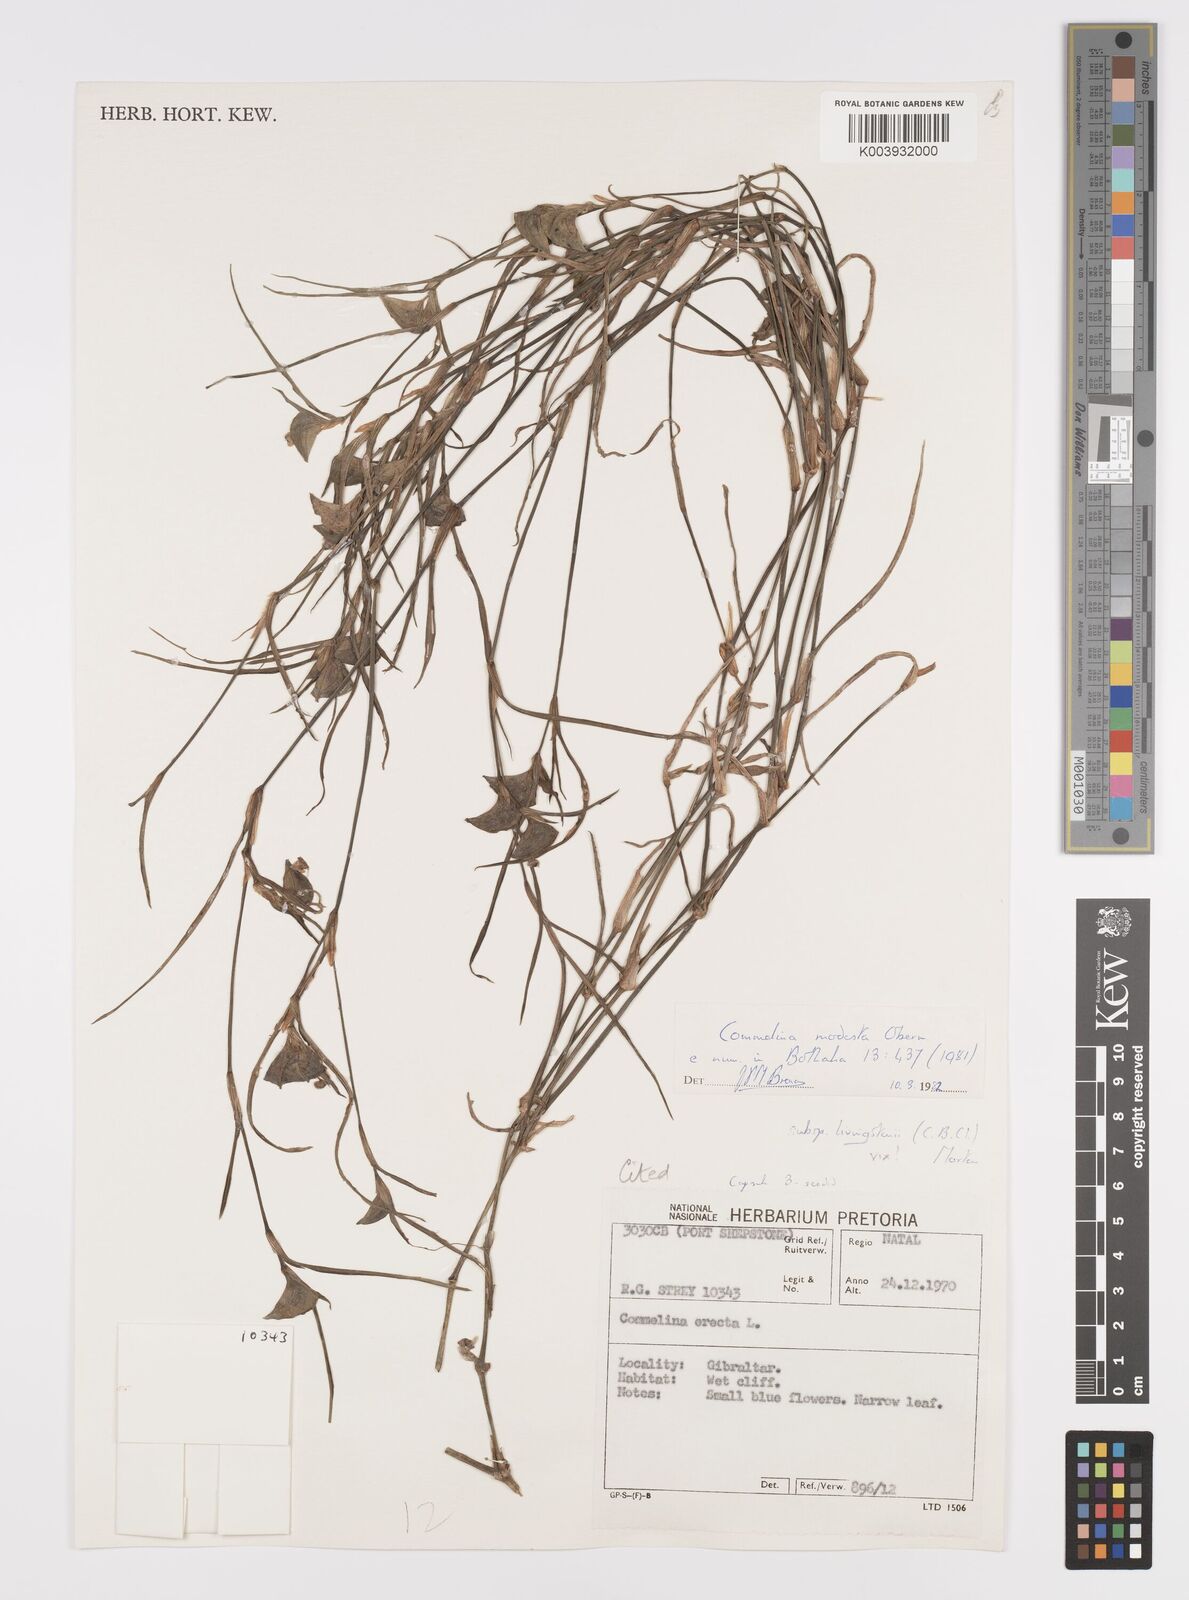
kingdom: Plantae
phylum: Tracheophyta
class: Liliopsida
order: Commelinales
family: Commelinaceae
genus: Commelina
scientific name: Commelina modesta
